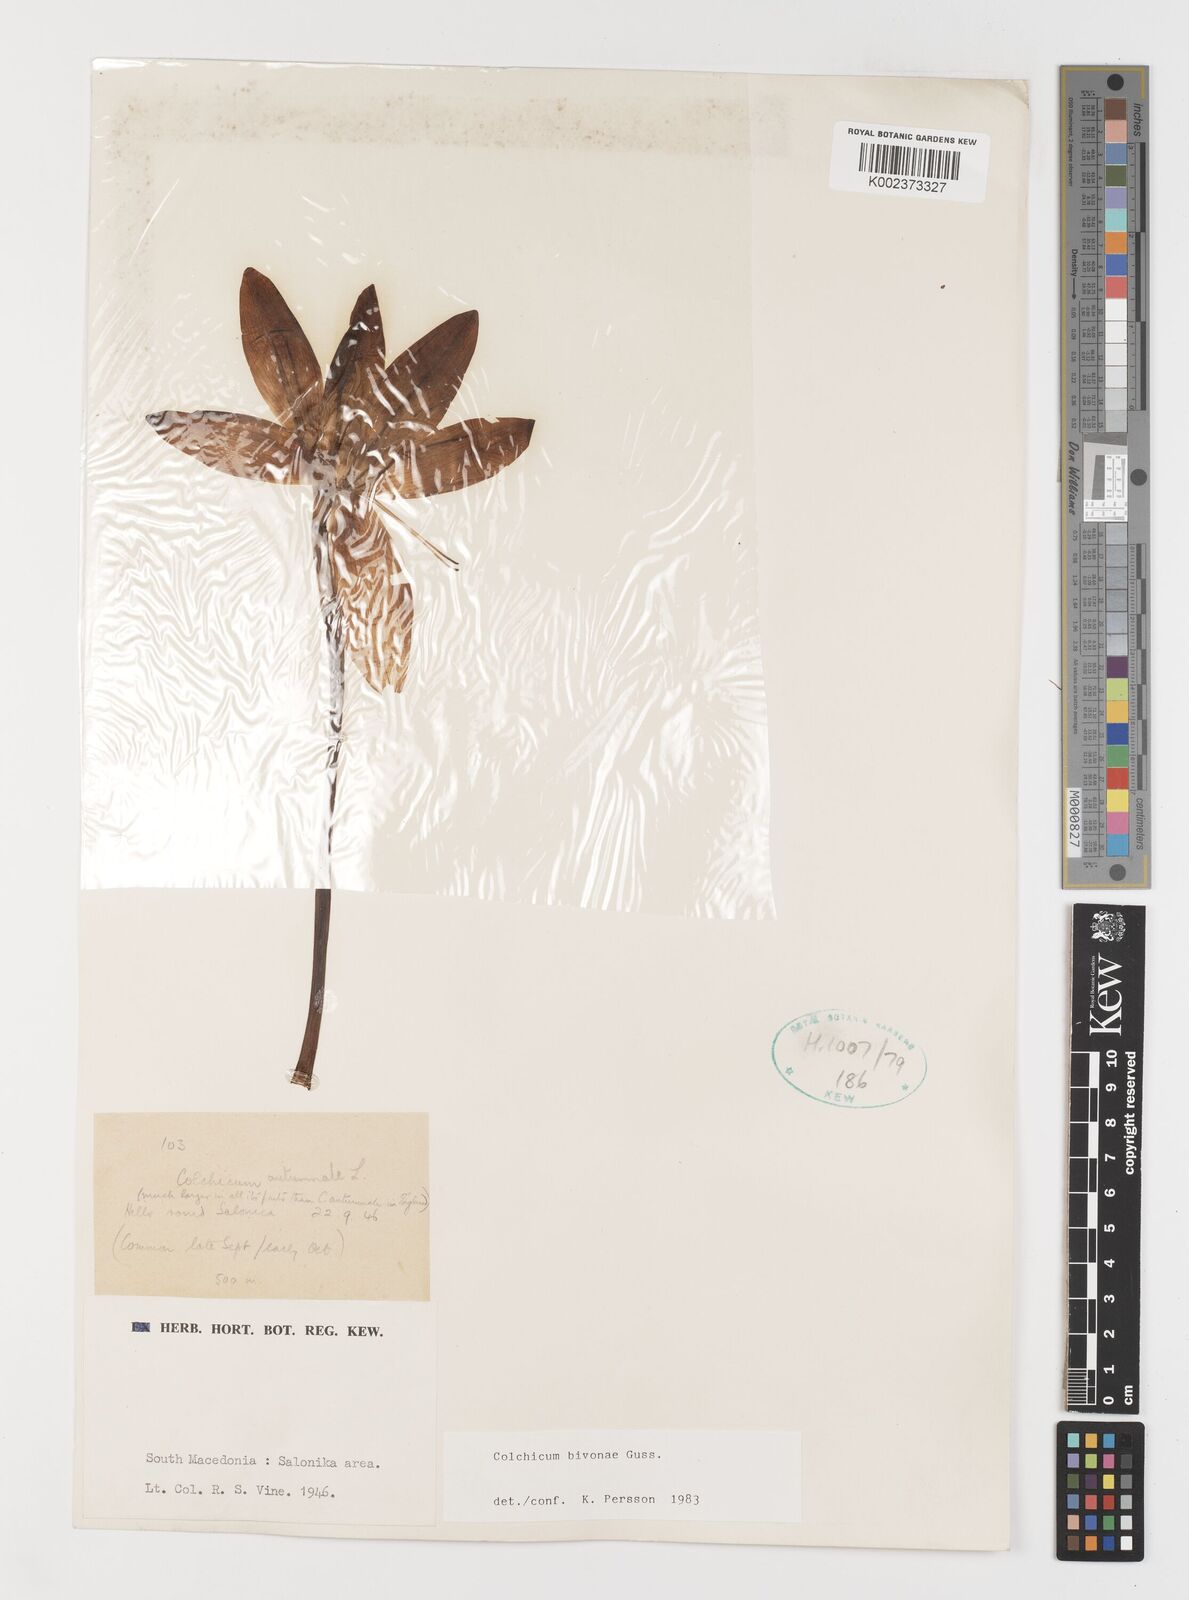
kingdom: Plantae
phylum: Tracheophyta
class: Liliopsida
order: Liliales
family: Colchicaceae
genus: Colchicum
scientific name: Colchicum bivonae
